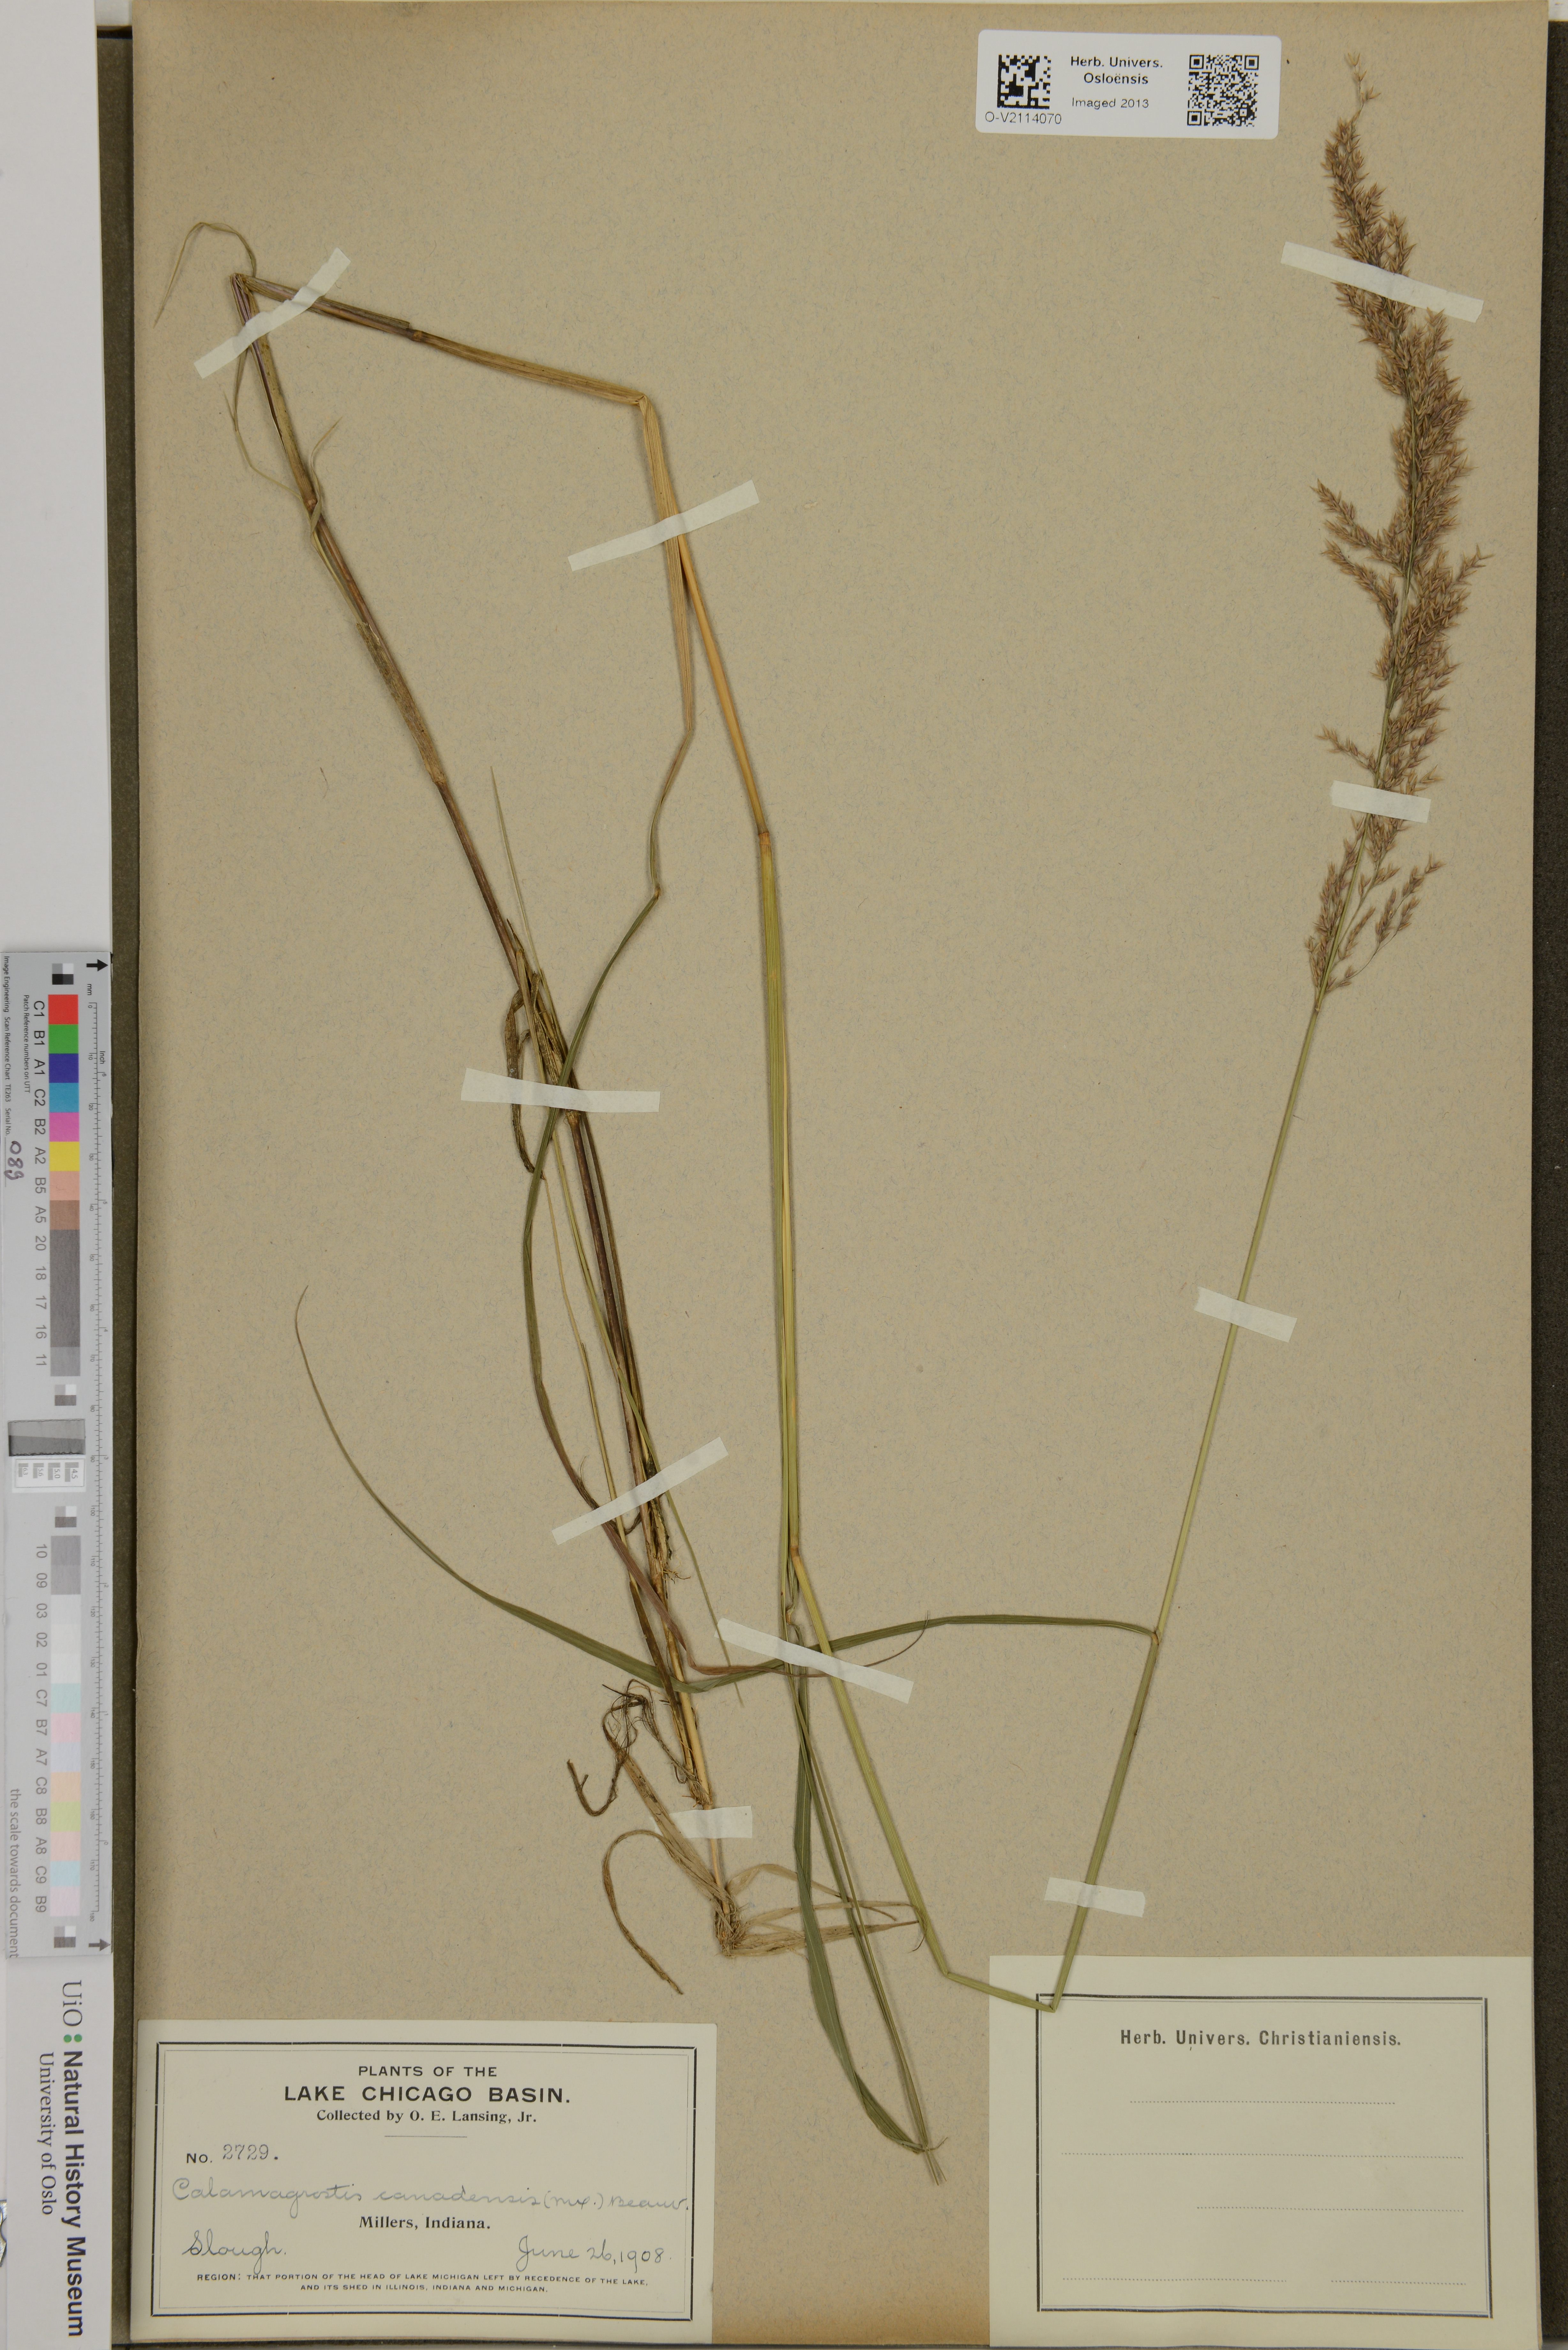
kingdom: Plantae
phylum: Tracheophyta
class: Liliopsida
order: Poales
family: Poaceae
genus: Calamagrostis
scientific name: Calamagrostis canadensis
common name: Canada bluejoint
